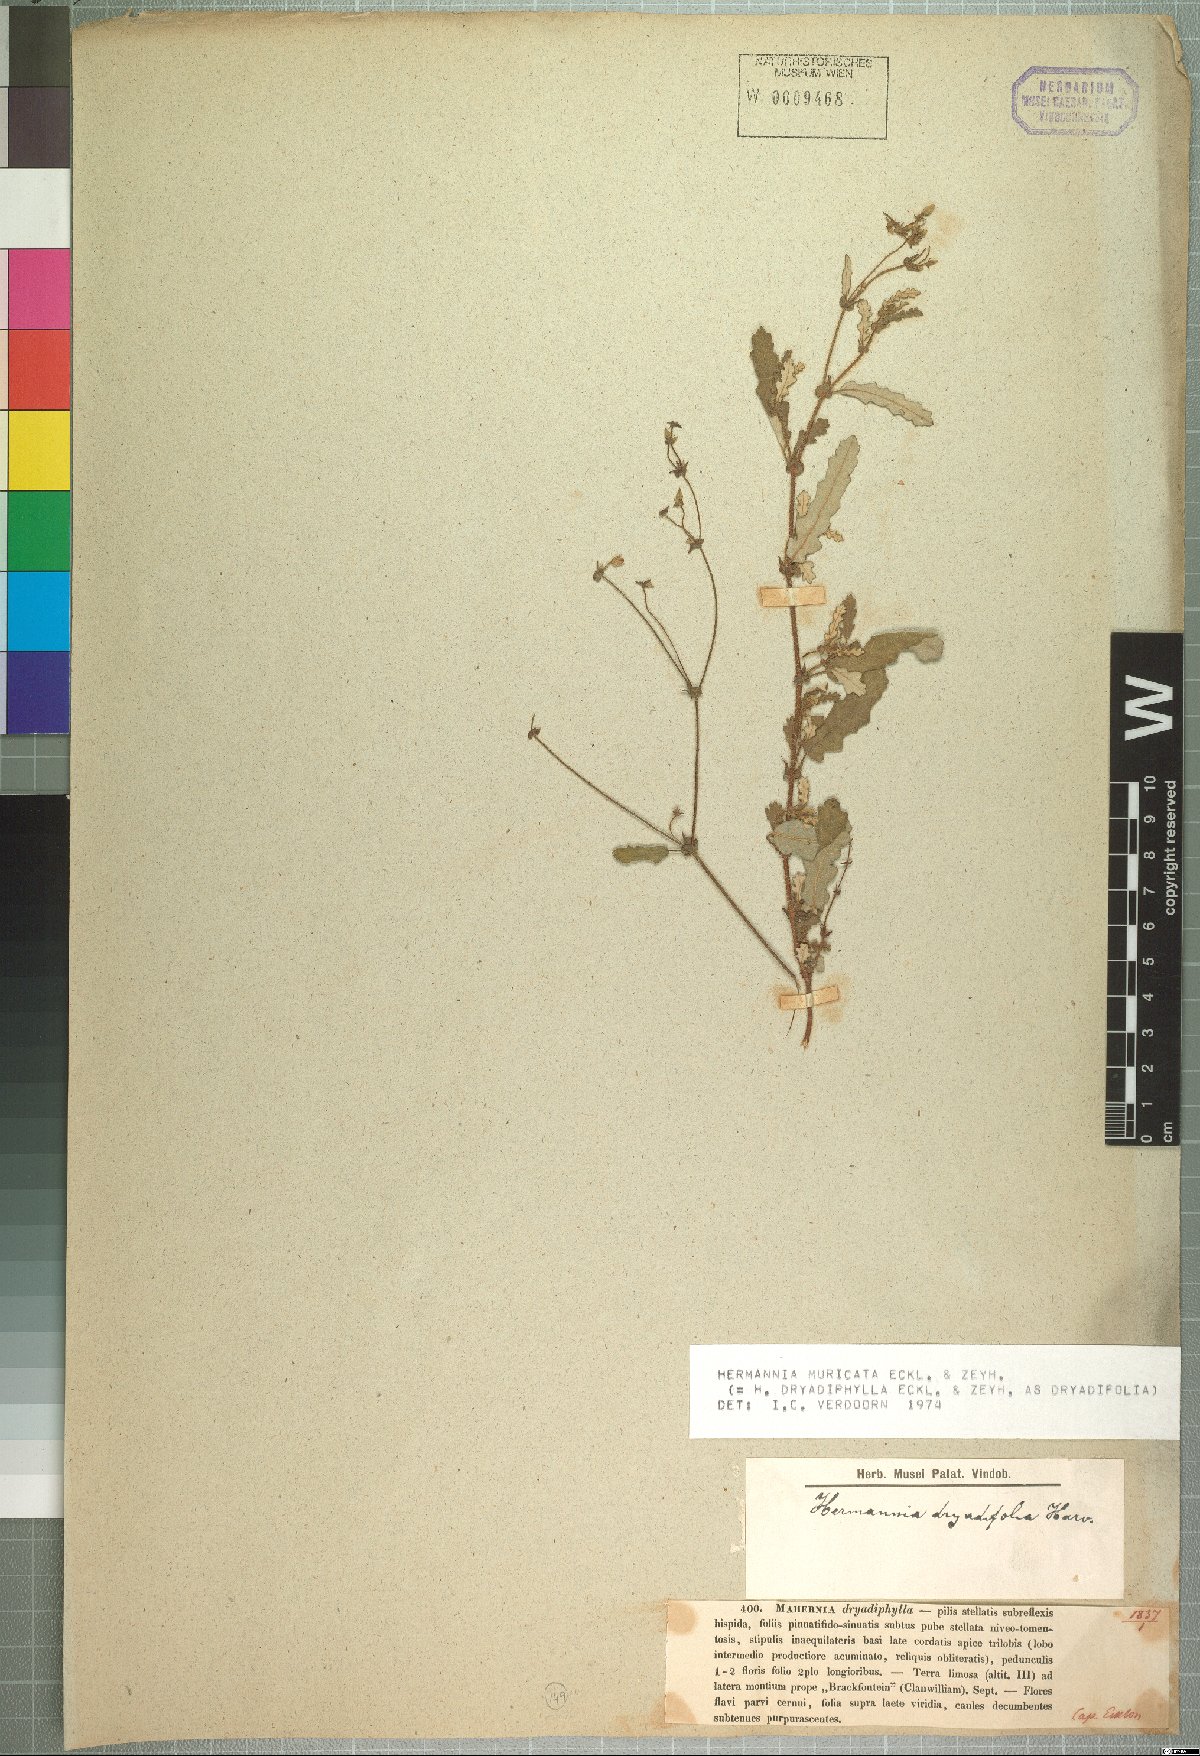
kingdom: Plantae
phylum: Tracheophyta
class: Magnoliopsida
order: Malvales
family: Malvaceae
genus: Hermannia
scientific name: Hermannia muricata
